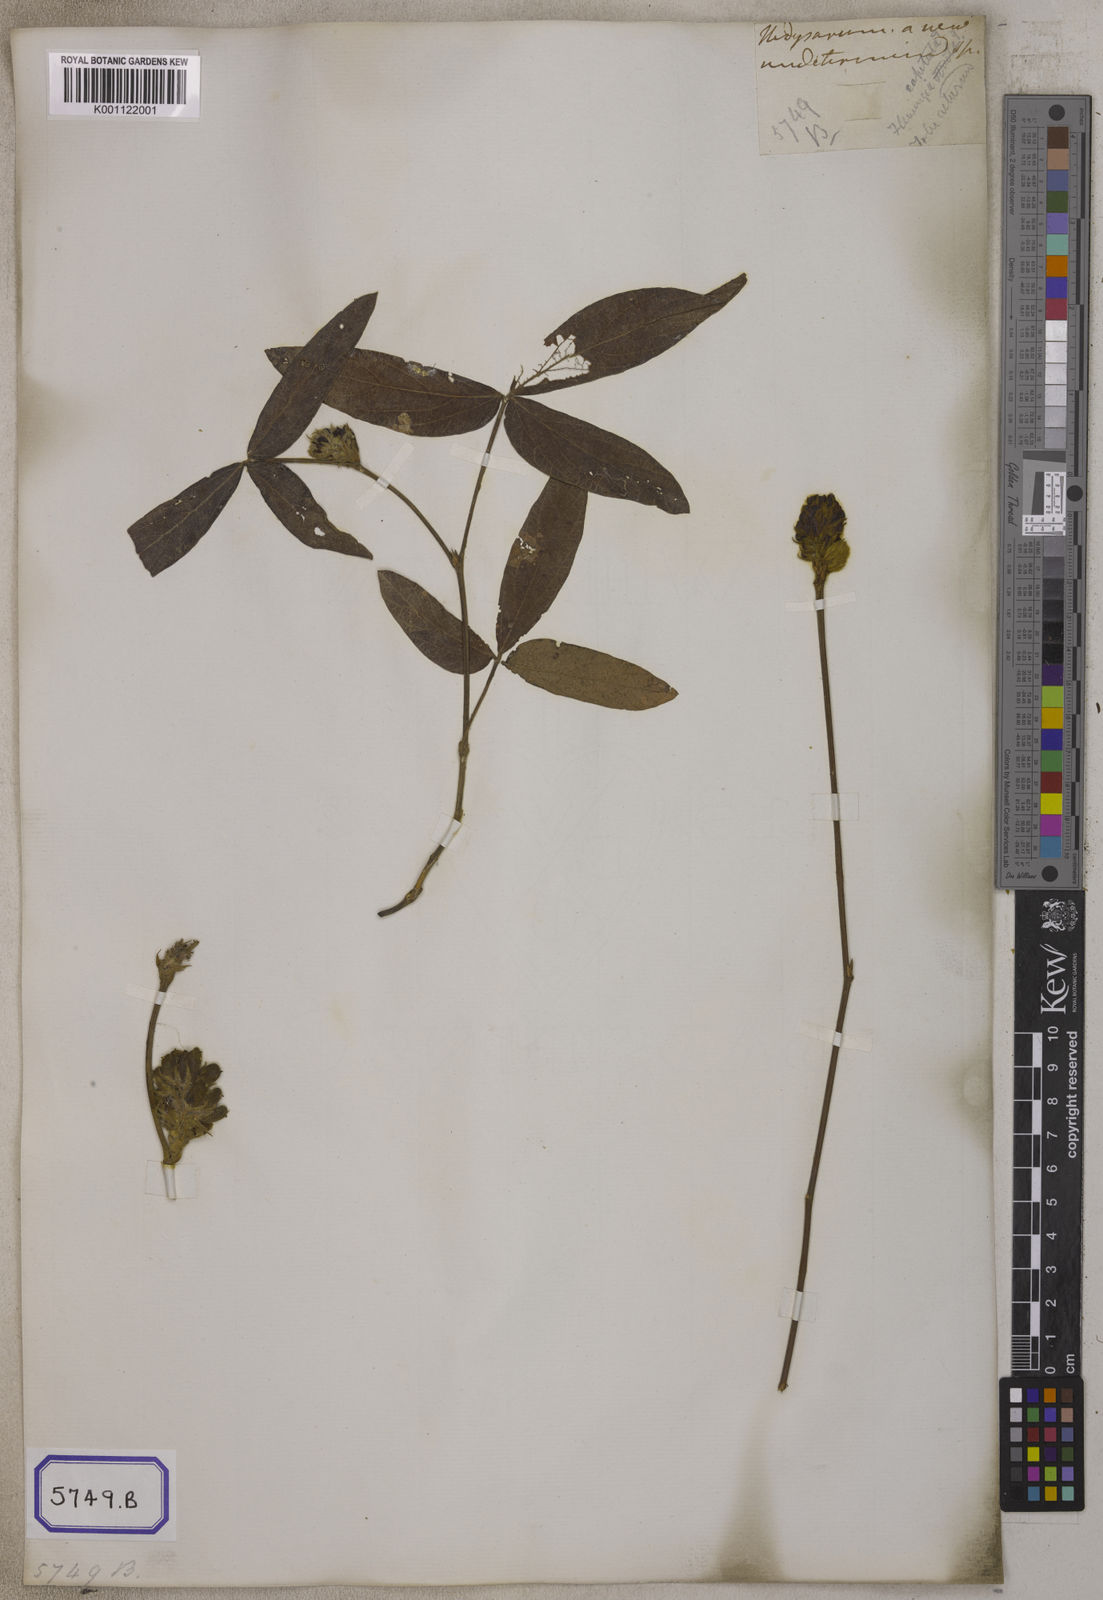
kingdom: Plantae
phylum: Tracheophyta
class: Magnoliopsida
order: Fabales
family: Fabaceae
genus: Flemingia
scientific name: Flemingia
